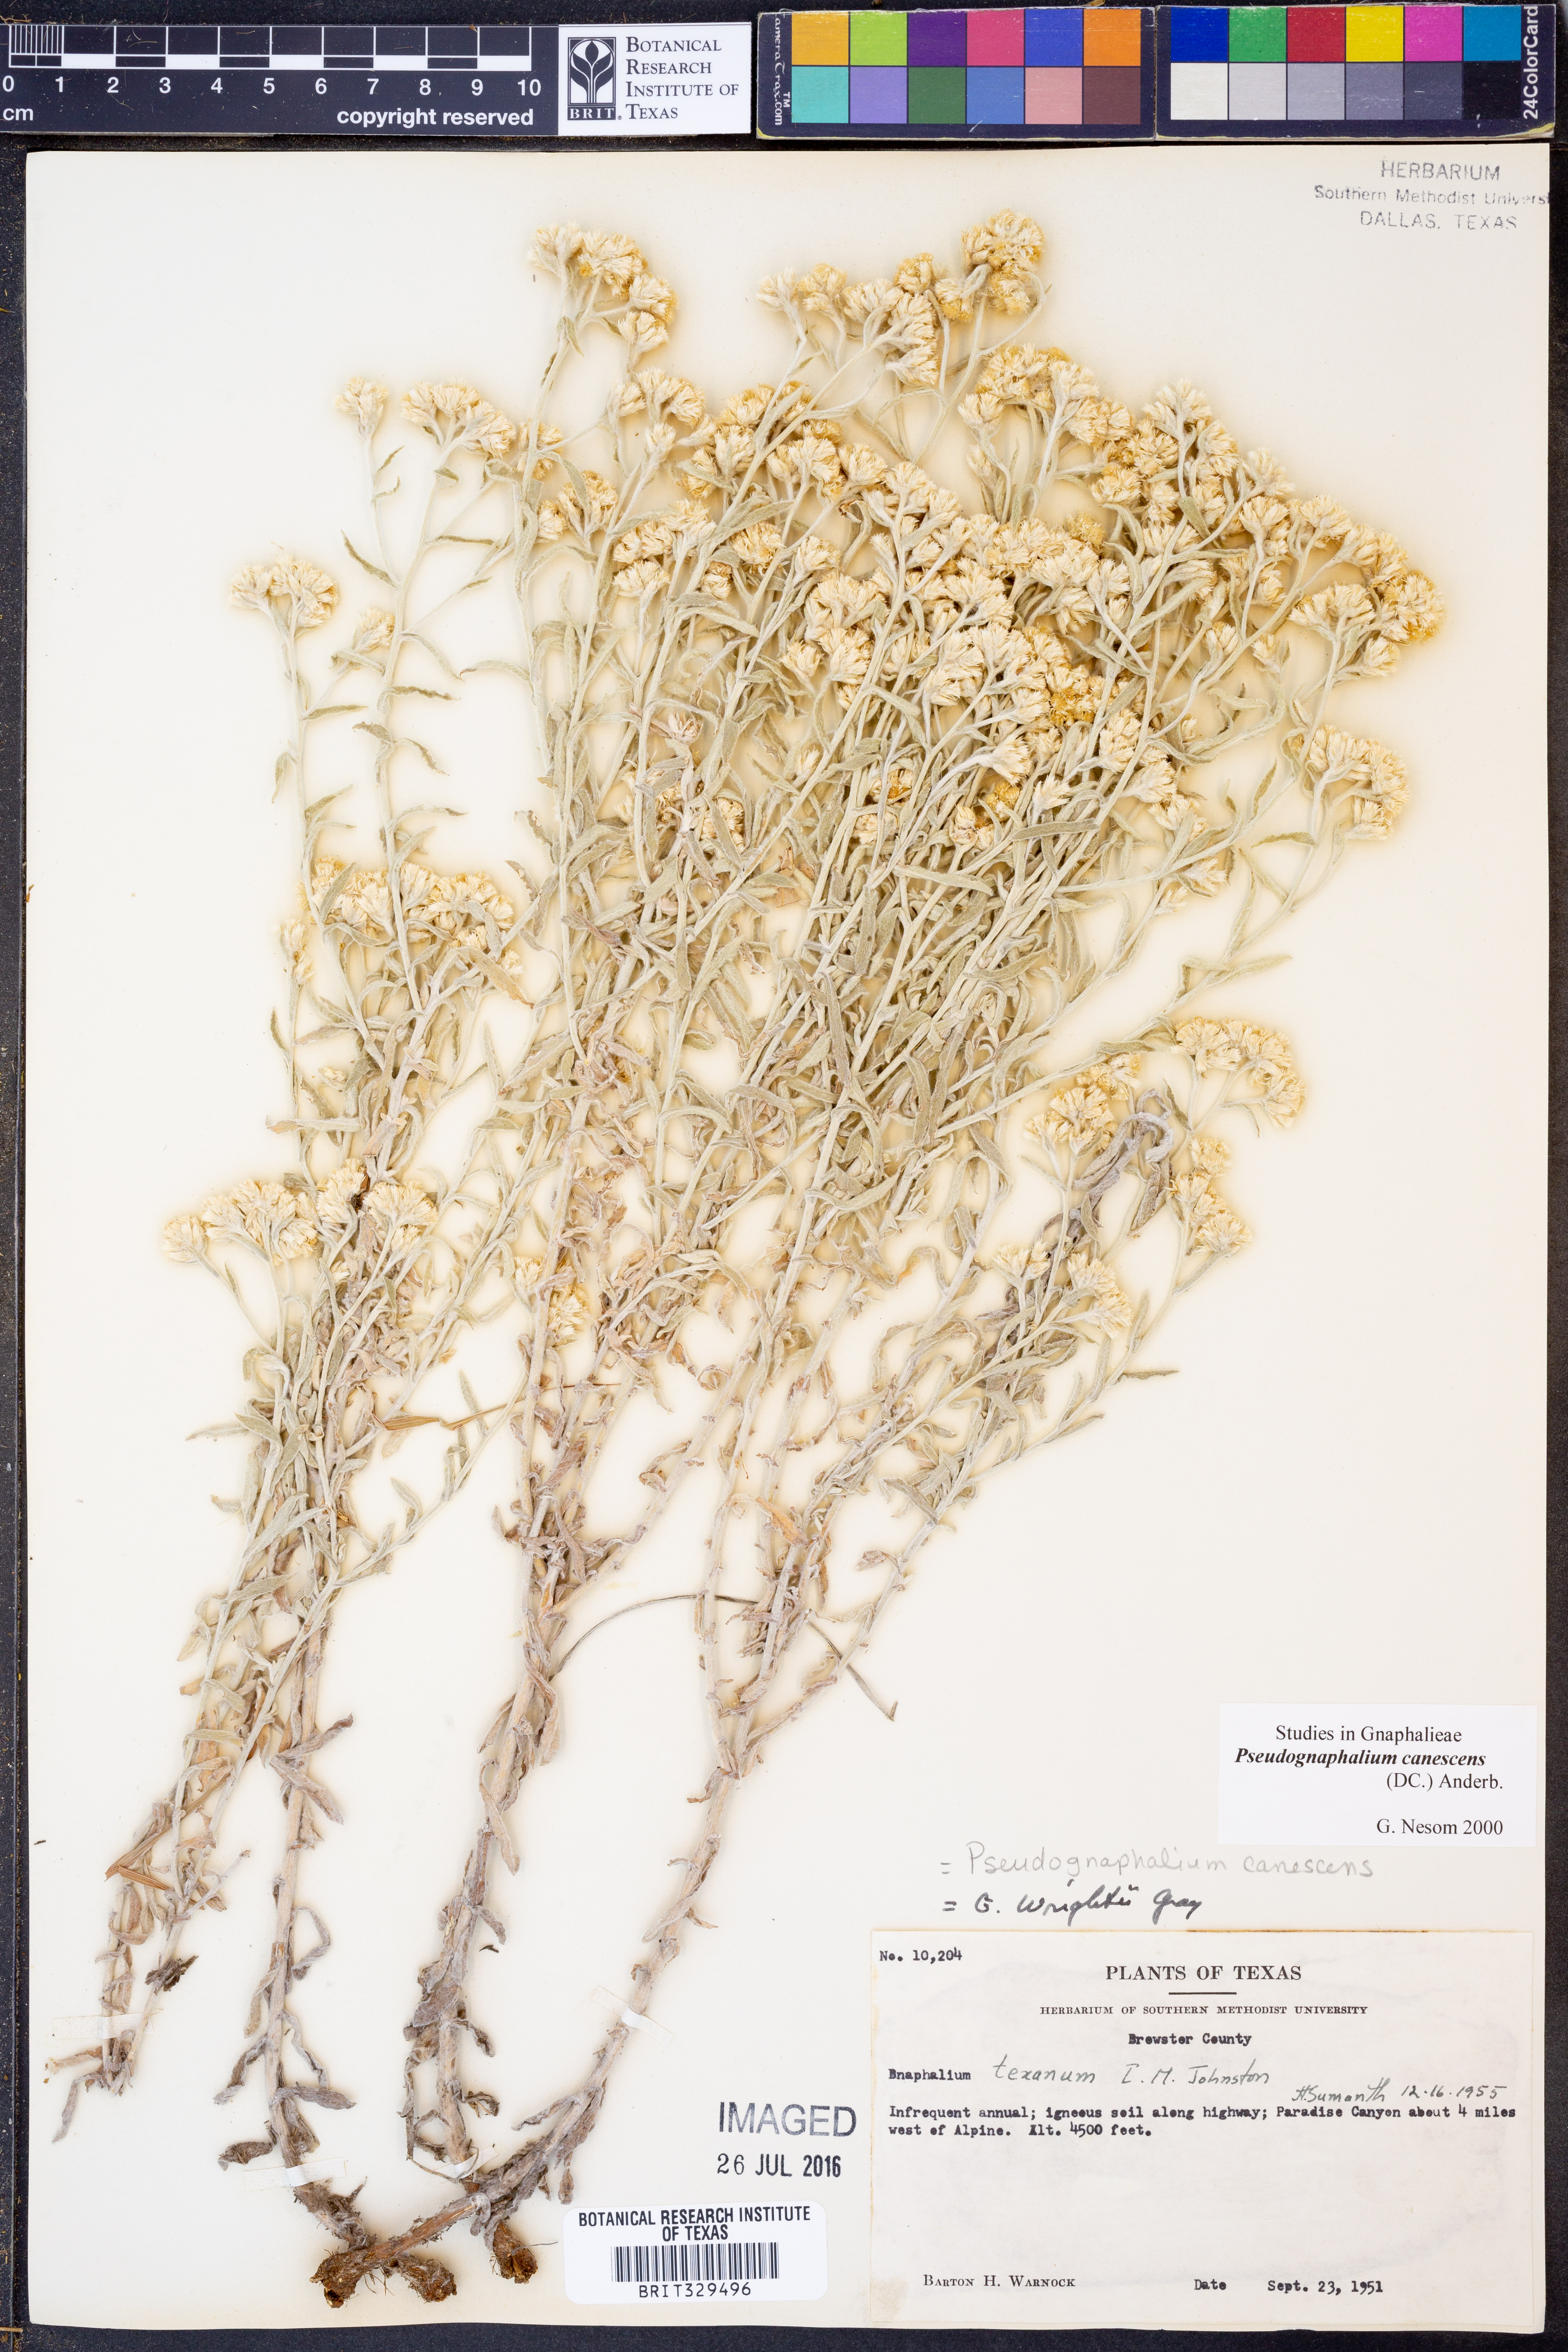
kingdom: Plantae
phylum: Tracheophyta
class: Magnoliopsida
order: Asterales
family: Asteraceae
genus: Pseudognaphalium
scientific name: Pseudognaphalium canescens
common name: Wright's rabbit-tobacco
